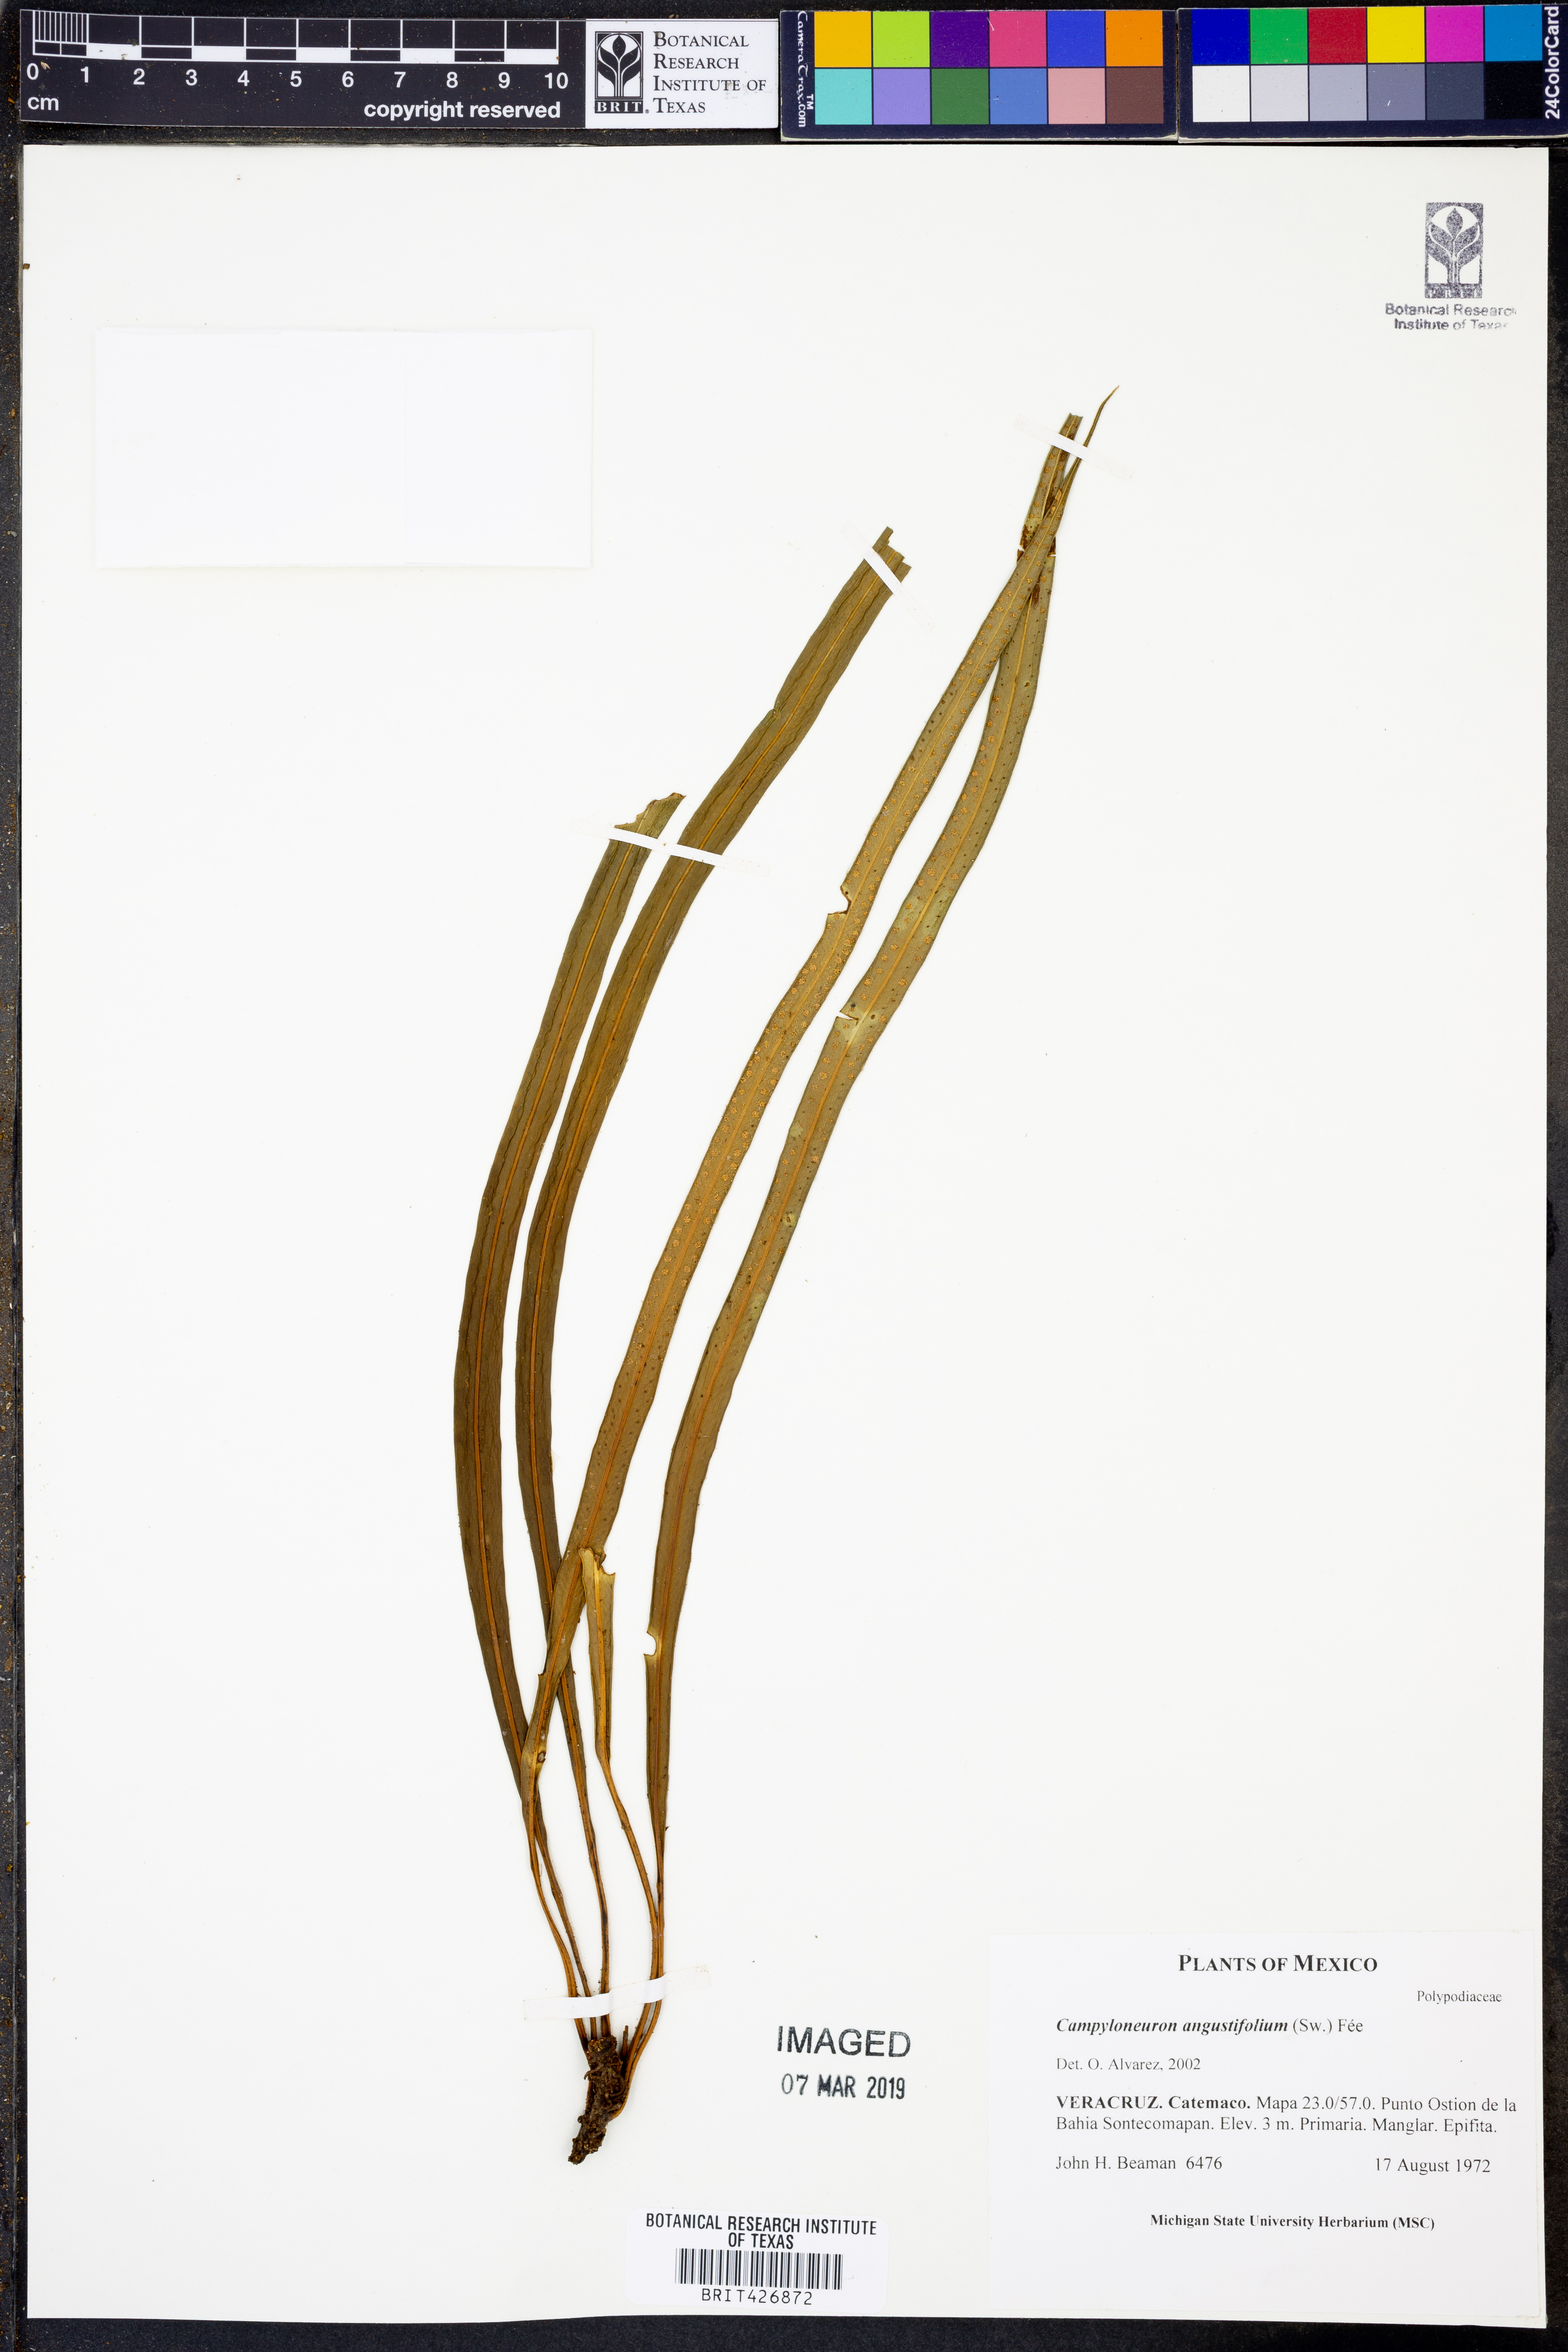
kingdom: Plantae
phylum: Tracheophyta
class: Polypodiopsida
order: Polypodiales
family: Polypodiaceae
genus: Campyloneurum
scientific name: Campyloneurum angustifolium
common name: Narrow-leaf strap fern
